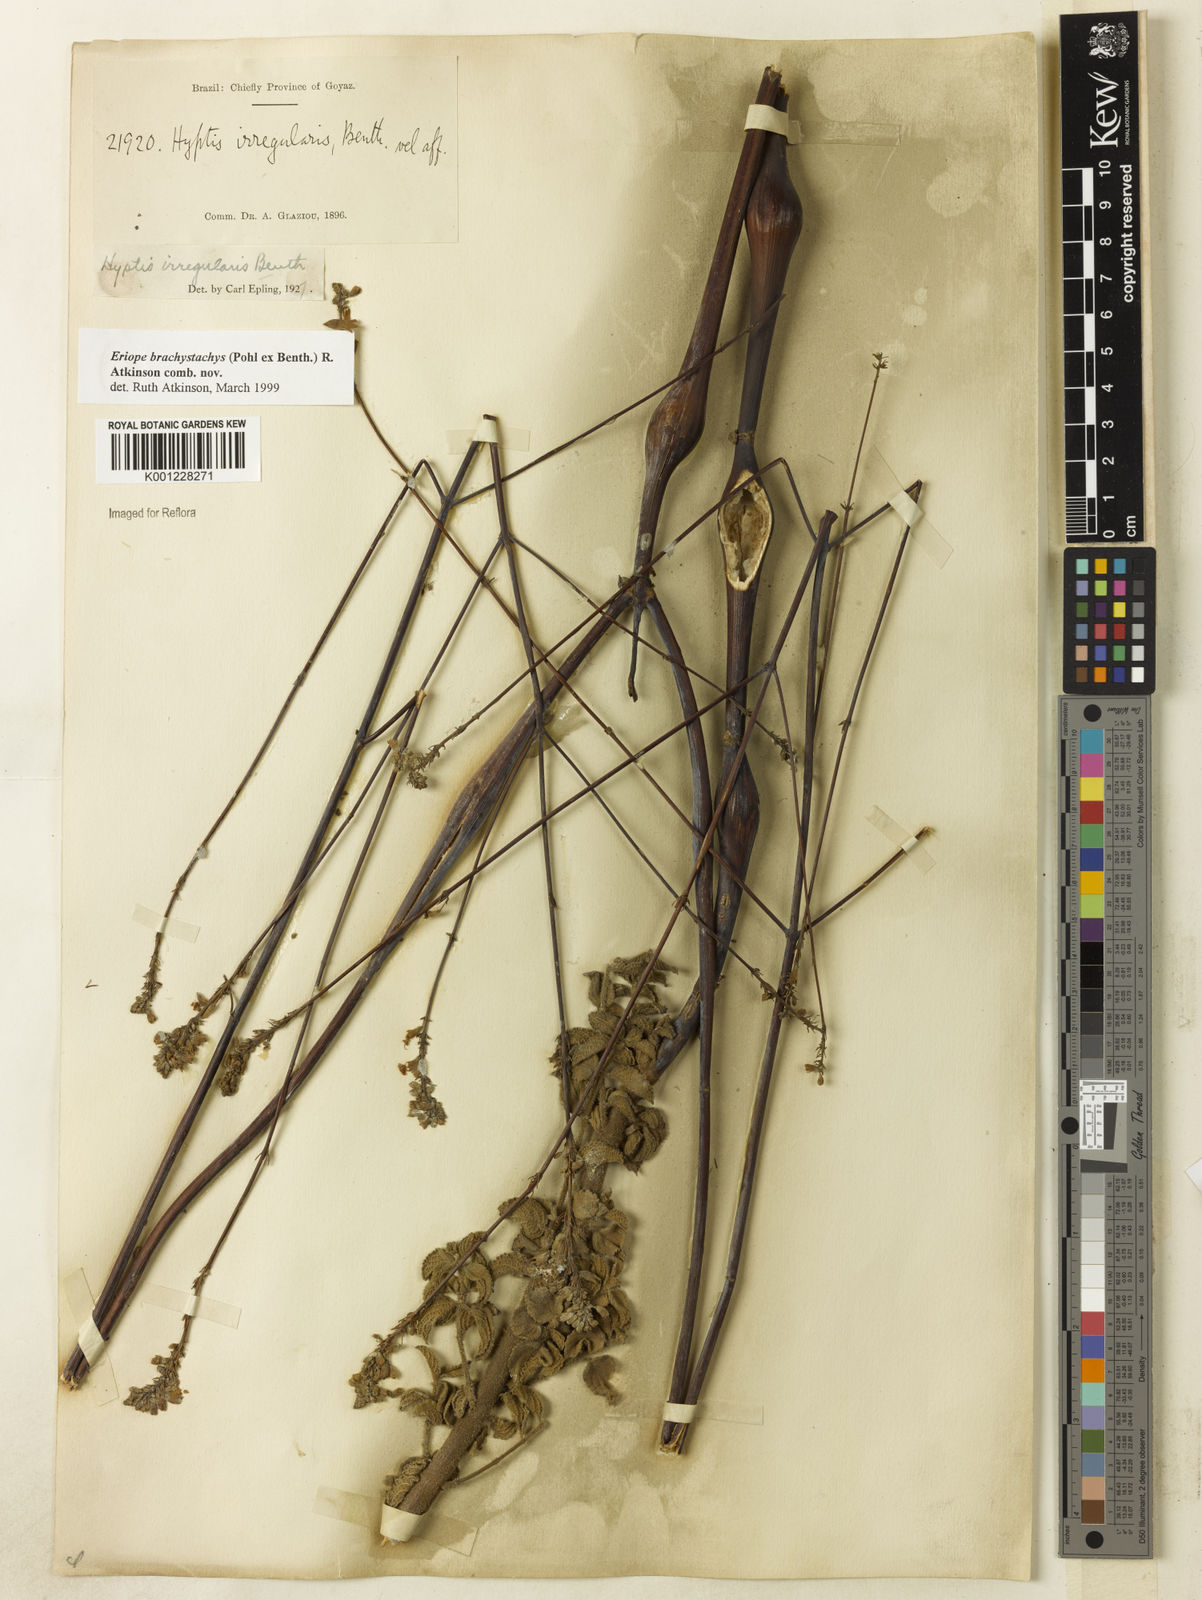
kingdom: Plantae
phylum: Tracheophyta
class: Magnoliopsida
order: Lamiales
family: Lamiaceae
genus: Hypenia
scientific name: Hypenia brachystachys
